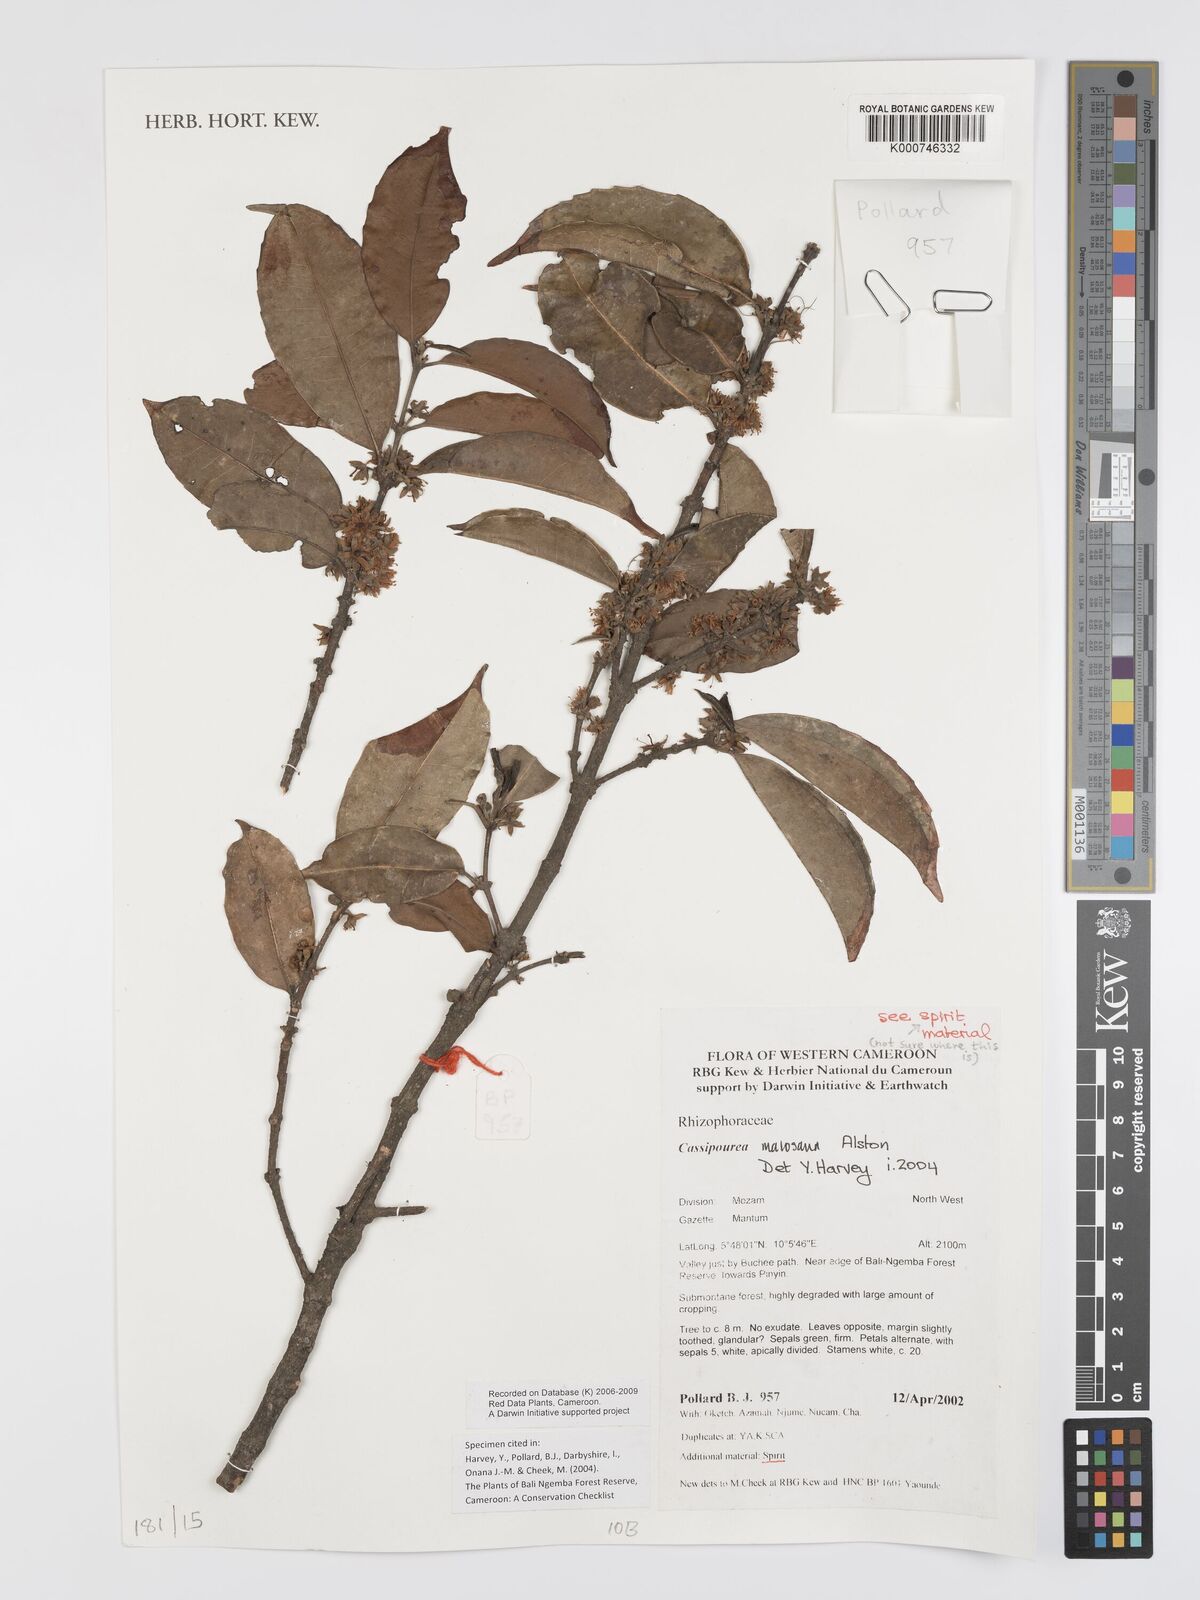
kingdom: Plantae
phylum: Tracheophyta
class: Magnoliopsida
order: Malpighiales
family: Rhizophoraceae
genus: Cassipourea
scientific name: Cassipourea malosana
